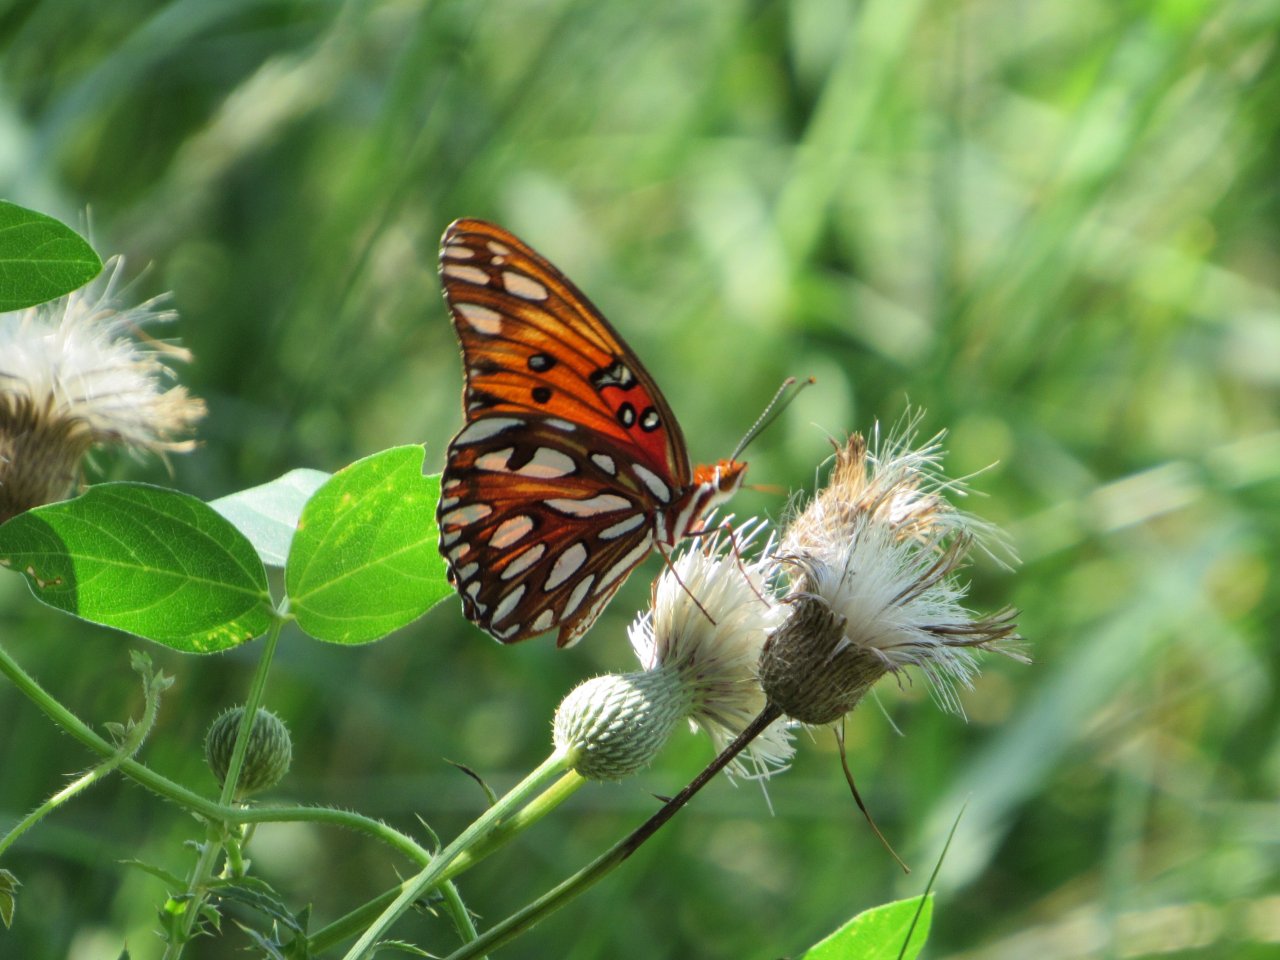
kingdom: Animalia
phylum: Arthropoda
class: Insecta
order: Lepidoptera
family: Nymphalidae
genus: Dione
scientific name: Dione vanillae
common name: Gulf Fritillary
